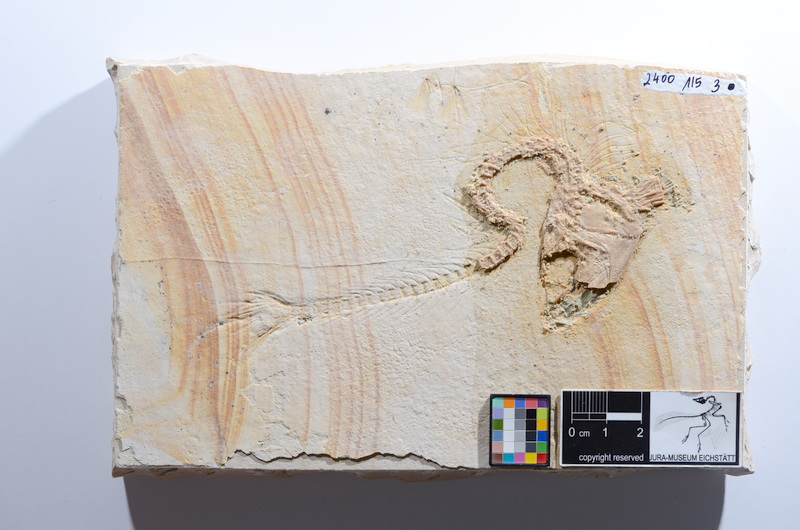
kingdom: Animalia
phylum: Chordata
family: Ascalaboidae
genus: Tharsis
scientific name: Tharsis dubius
